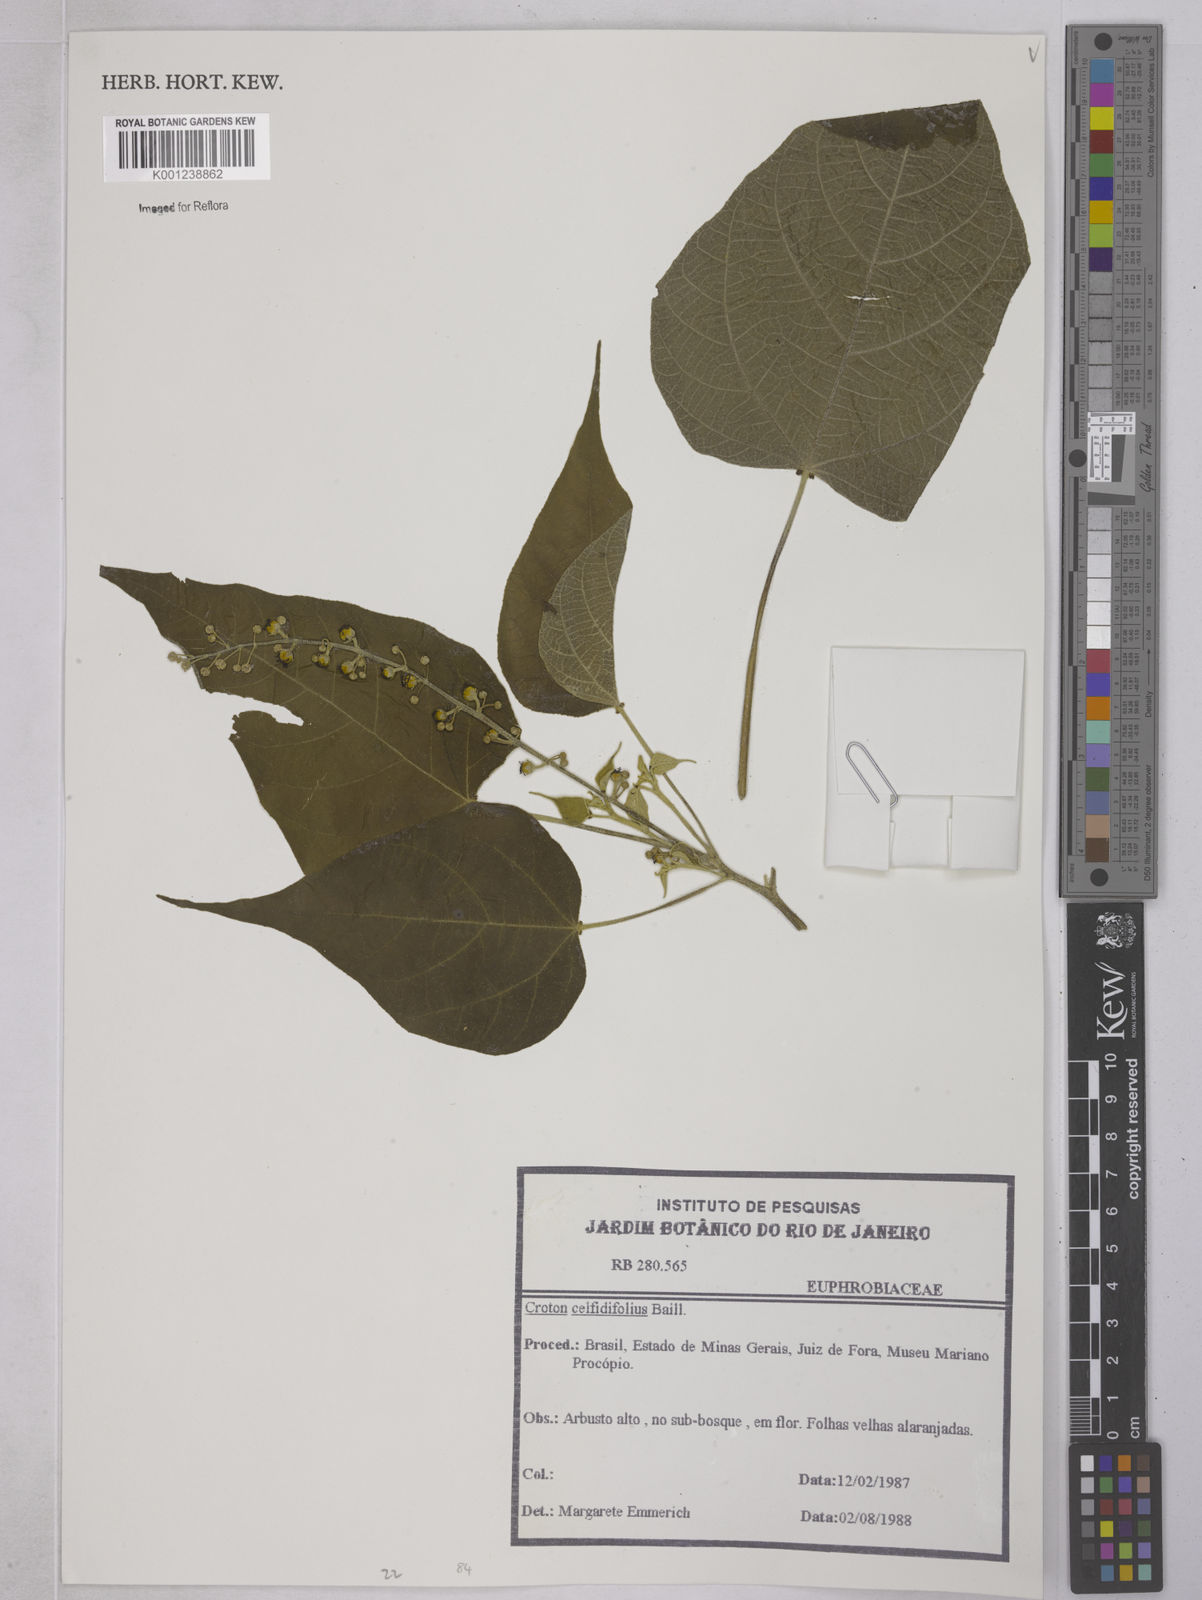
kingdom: Plantae
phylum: Tracheophyta
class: Magnoliopsida
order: Malpighiales
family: Euphorbiaceae
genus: Croton
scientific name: Croton celtidifolius
